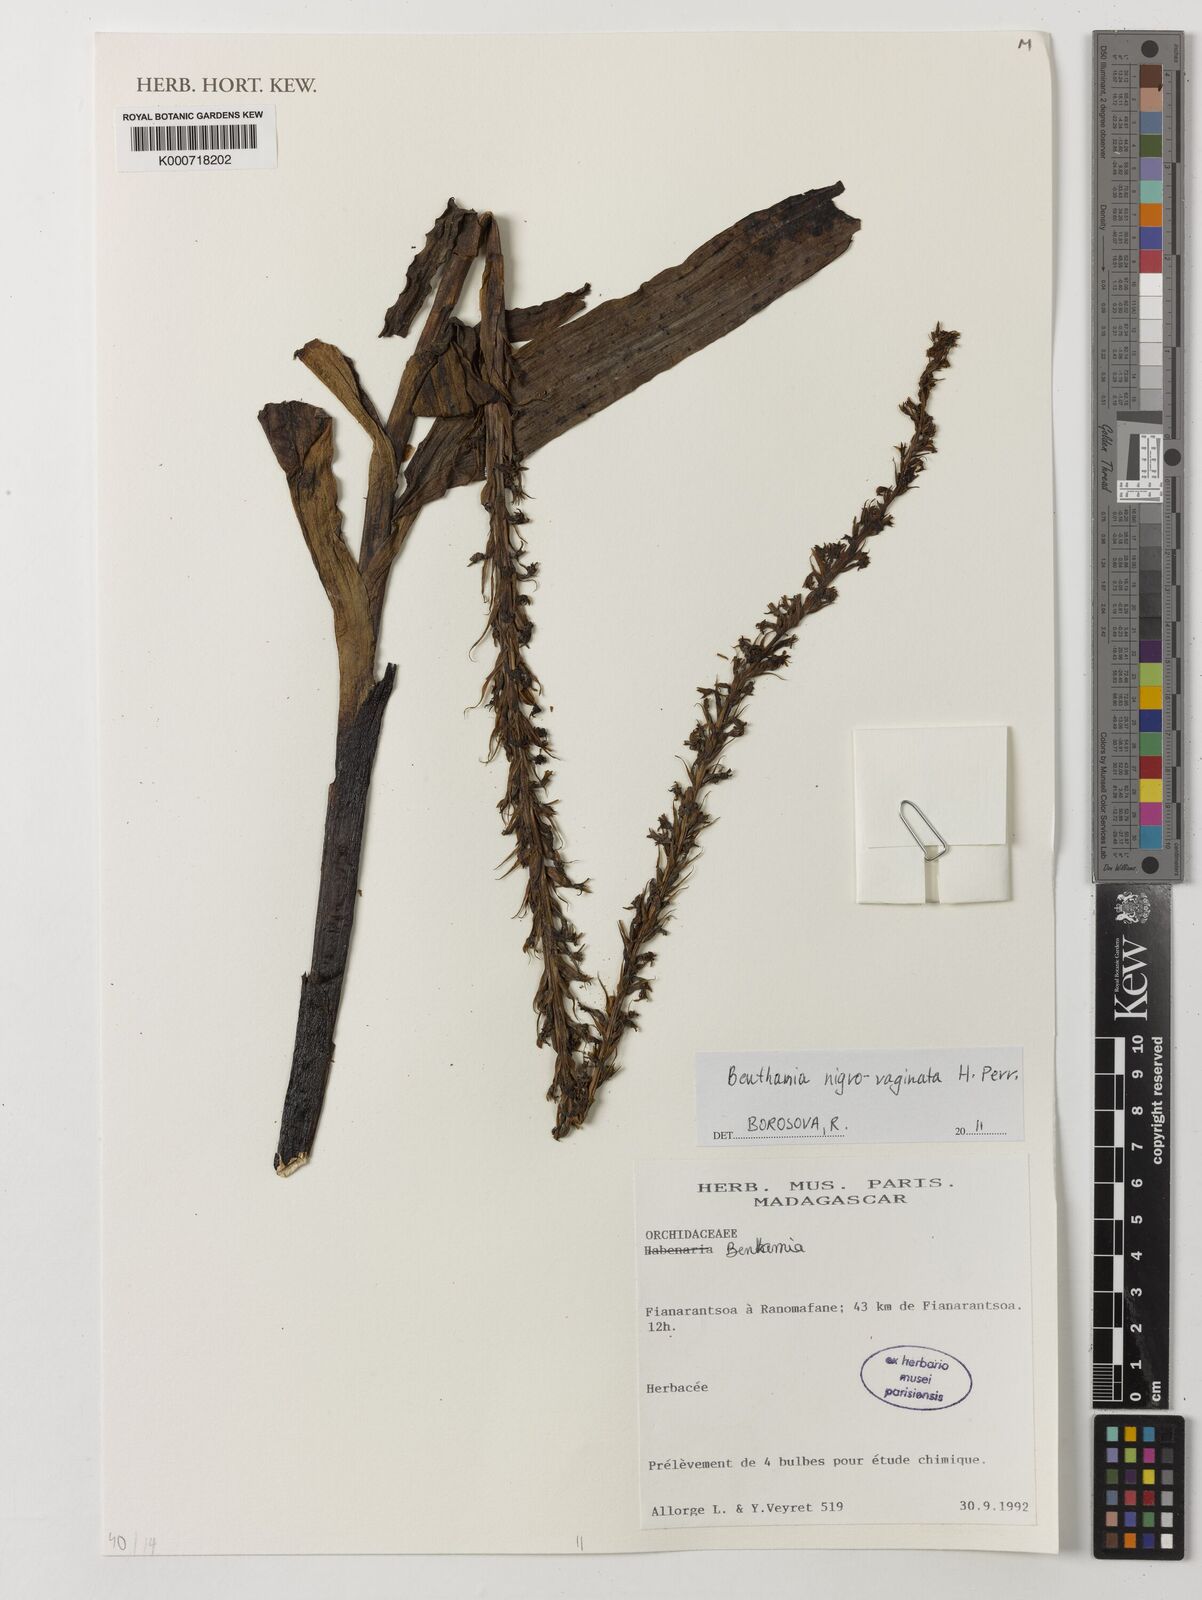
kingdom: Plantae
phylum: Tracheophyta
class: Liliopsida
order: Asparagales
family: Orchidaceae
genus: Benthamia
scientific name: Benthamia nigrovaginata
